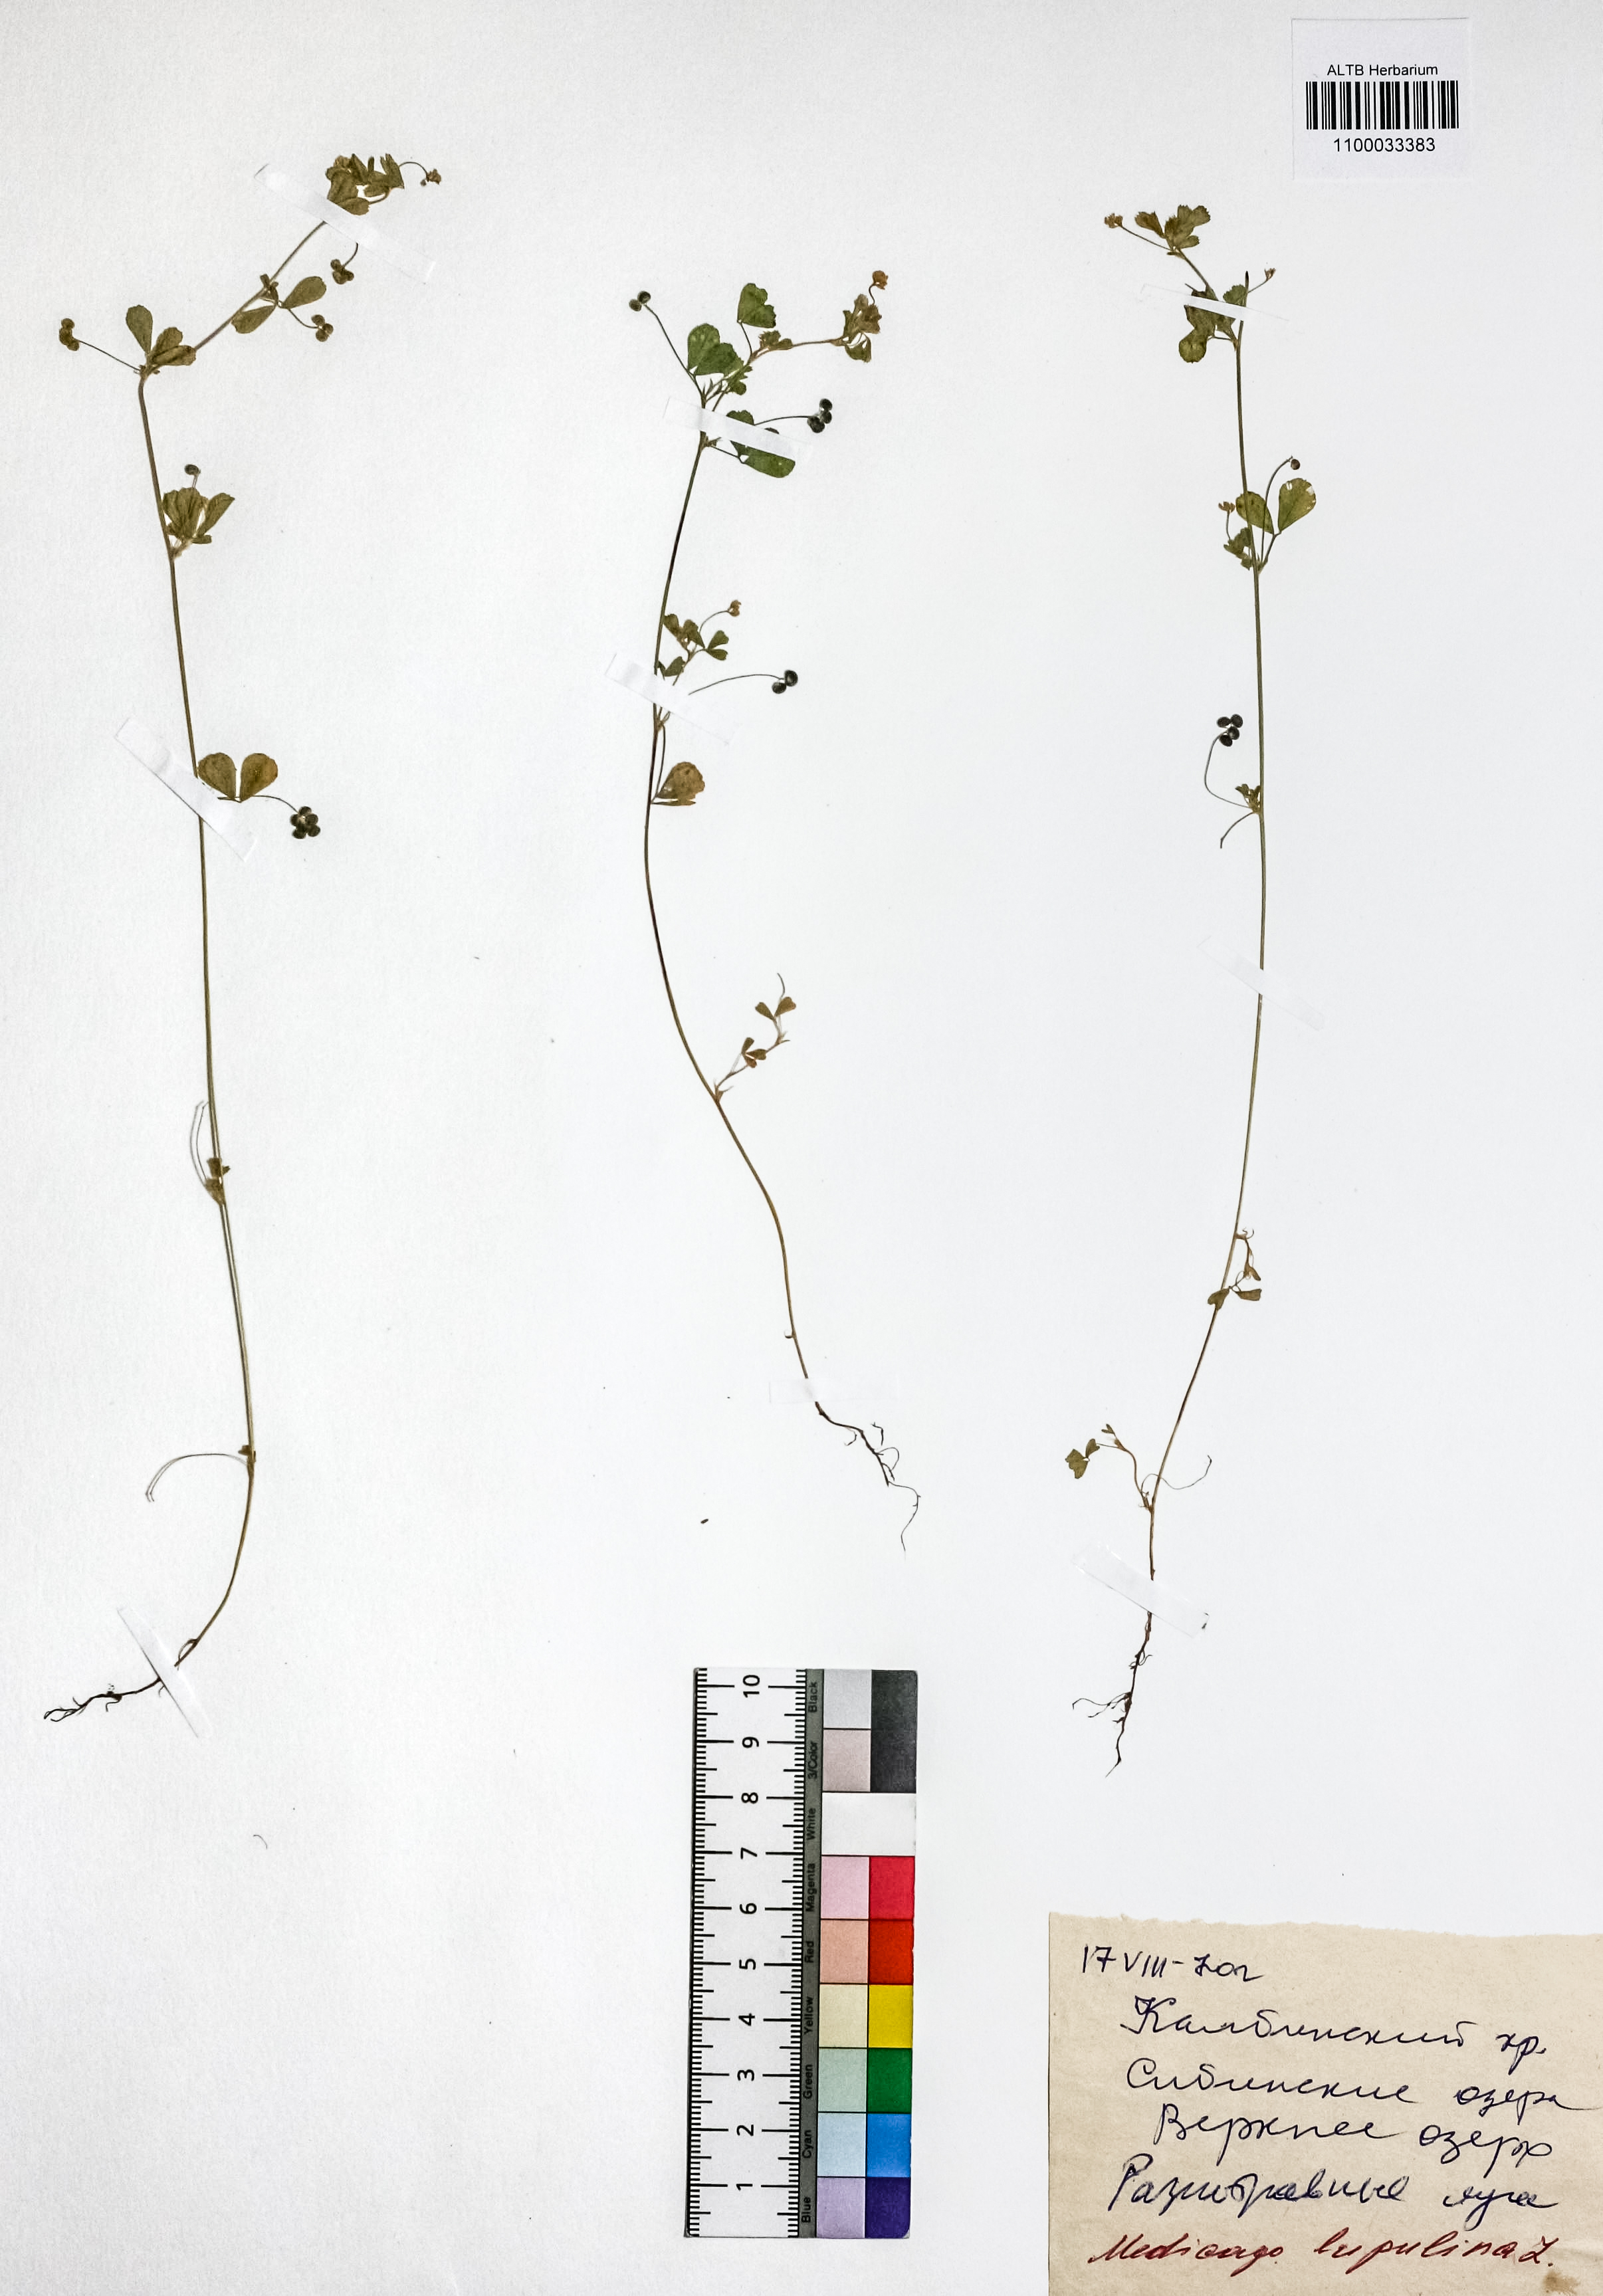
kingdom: Plantae
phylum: Tracheophyta
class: Magnoliopsida
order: Fabales
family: Fabaceae
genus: Medicago
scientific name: Medicago lupulina
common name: Black medick
